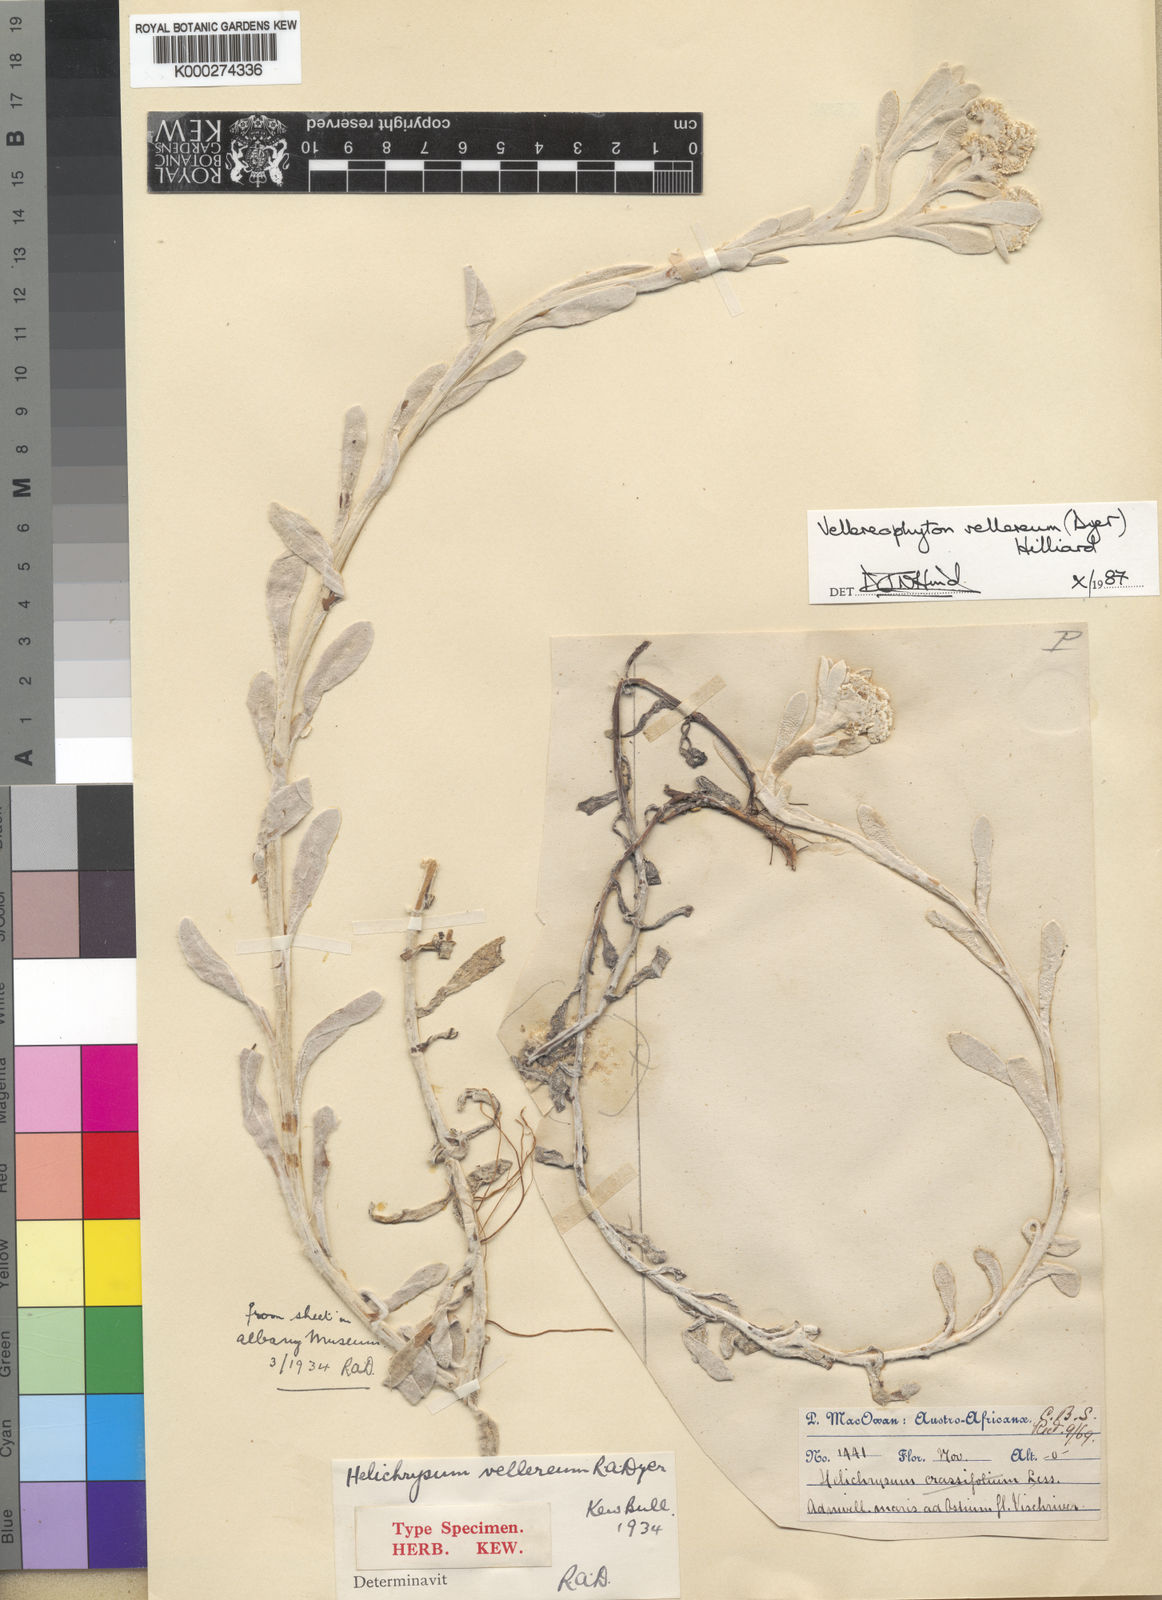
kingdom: Plantae
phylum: Tracheophyta
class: Magnoliopsida
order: Asterales
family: Asteraceae
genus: Vellereophyton
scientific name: Vellereophyton vellereum
